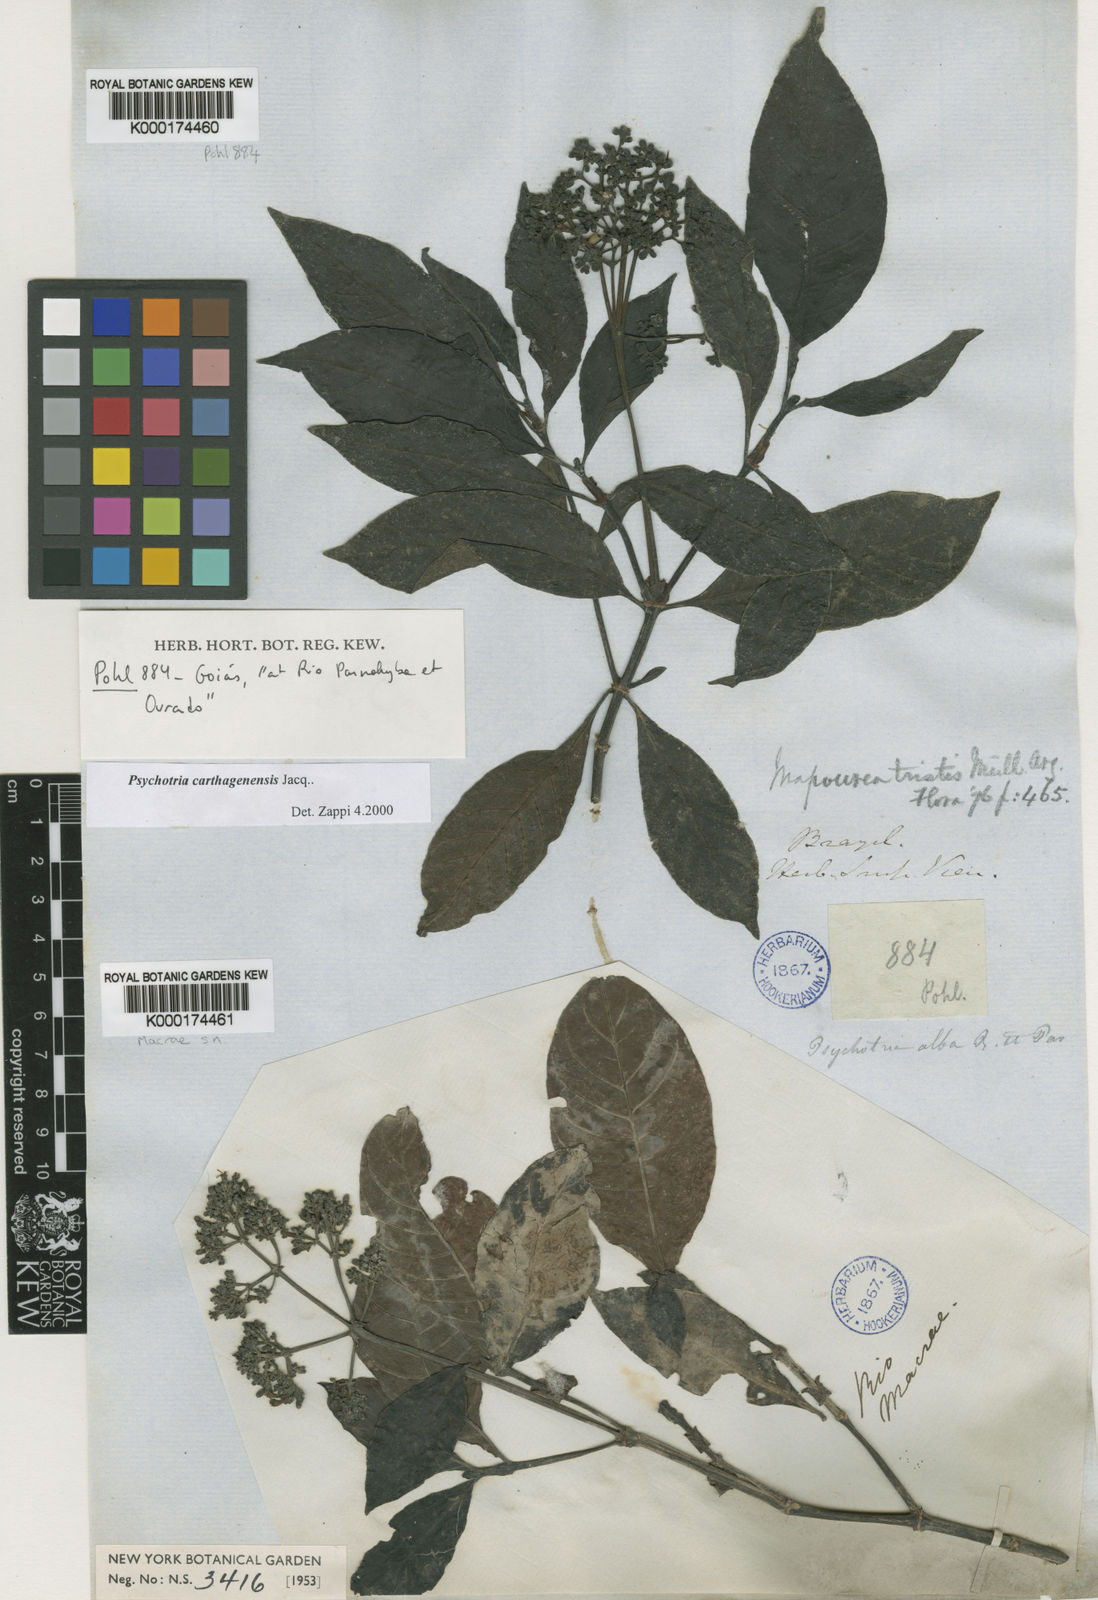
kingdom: Plantae
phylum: Tracheophyta
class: Magnoliopsida
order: Gentianales
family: Rubiaceae
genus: Psychotria
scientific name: Psychotria carthagenensis
